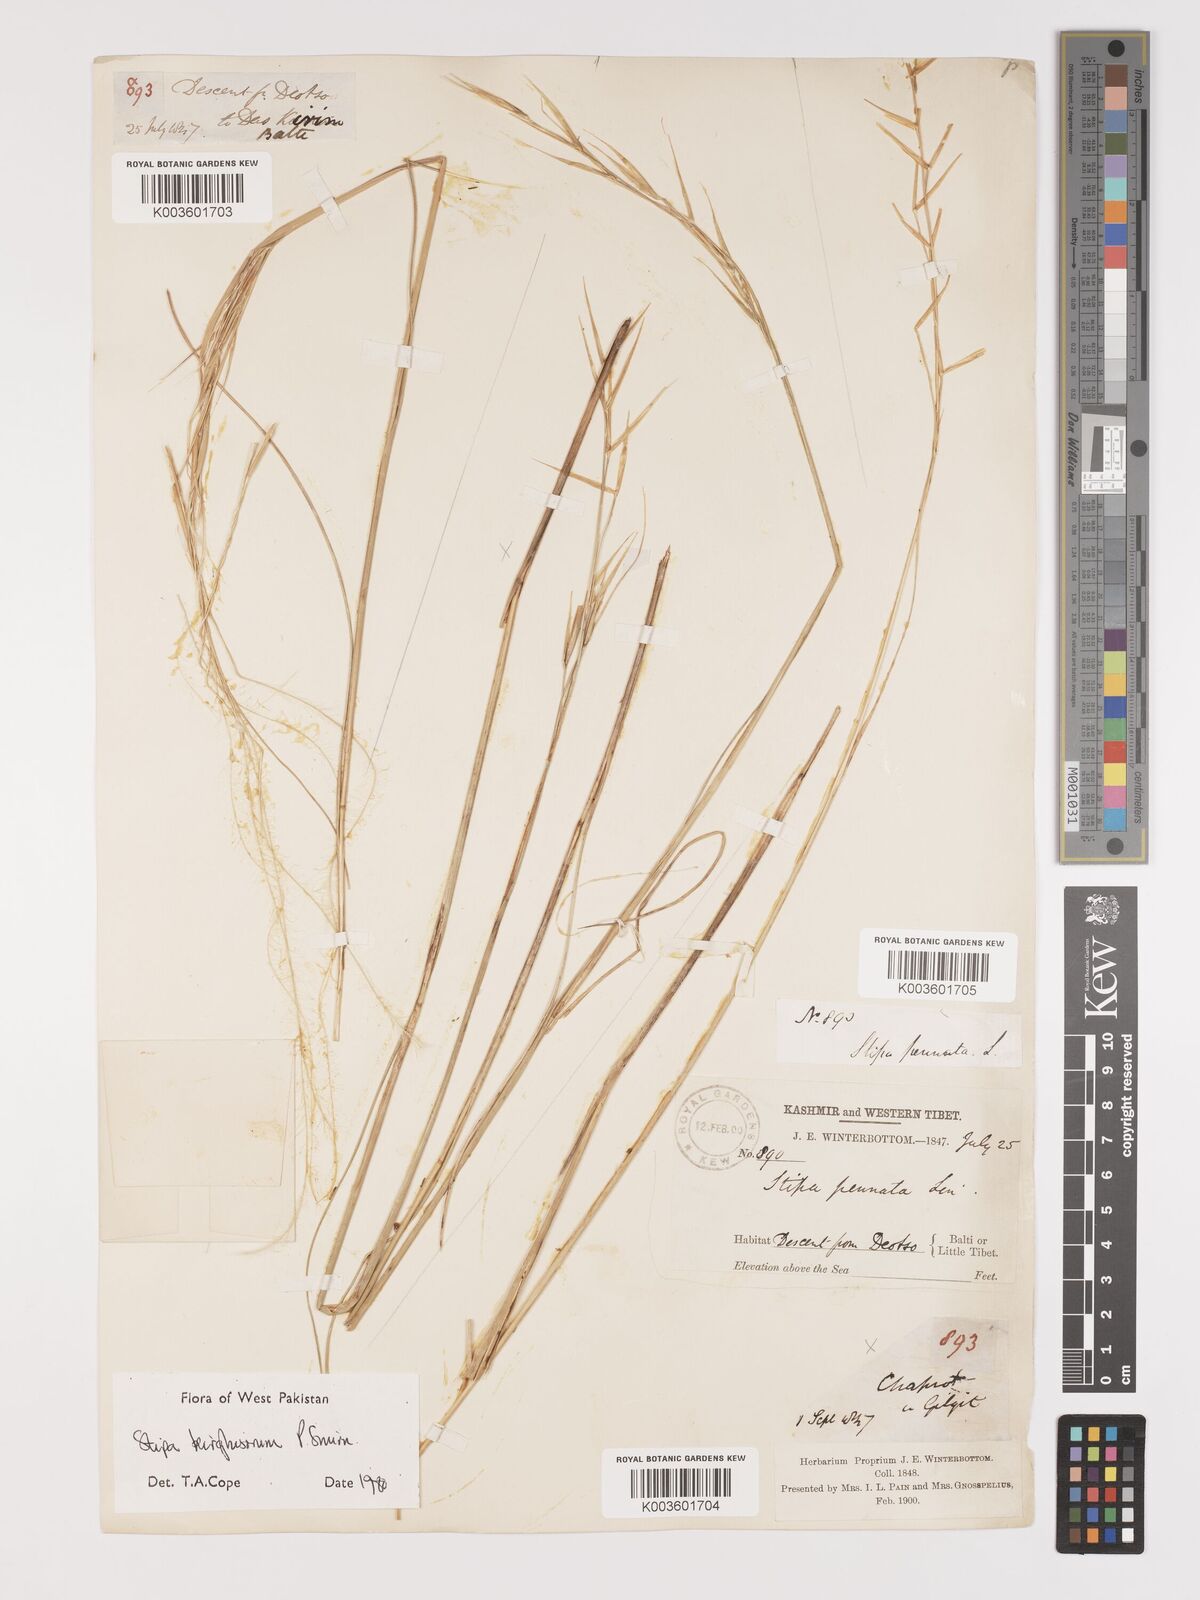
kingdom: Plantae
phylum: Tracheophyta
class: Liliopsida
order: Poales
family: Poaceae
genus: Stipa
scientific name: Stipa kirghisorum
